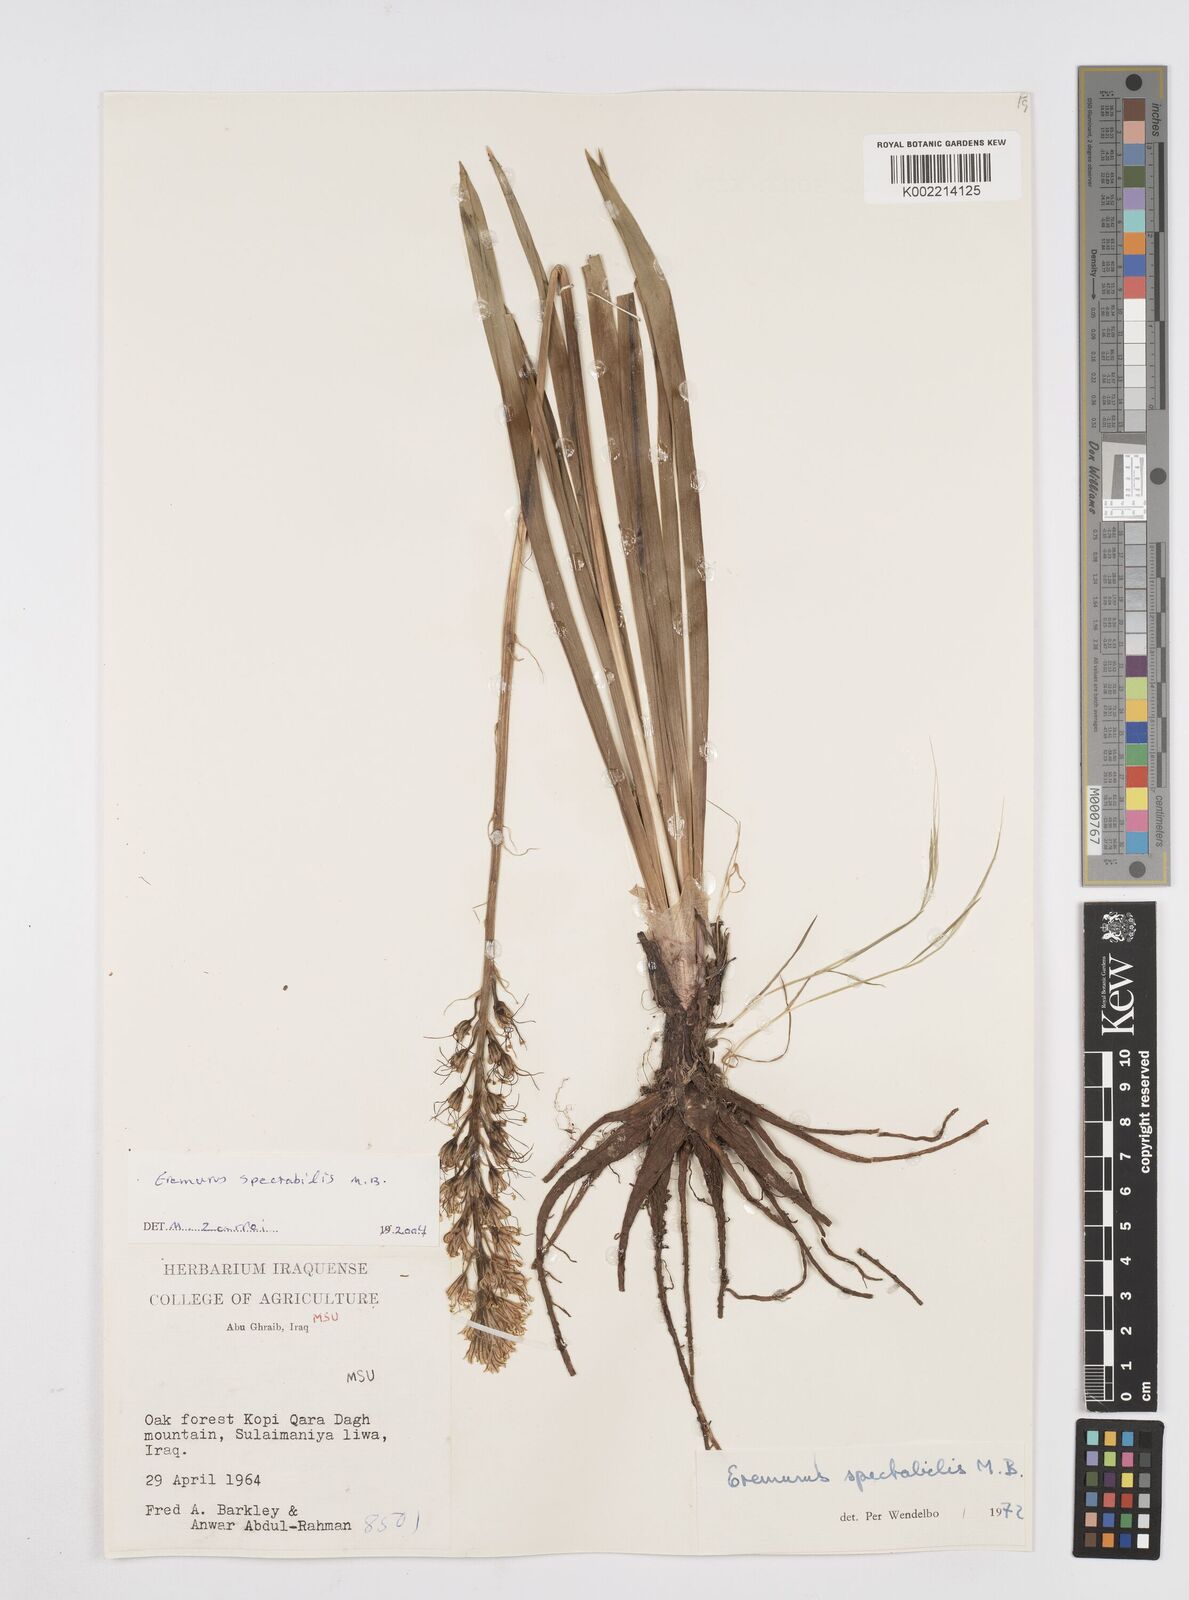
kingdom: Plantae
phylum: Tracheophyta
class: Liliopsida
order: Asparagales
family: Asphodelaceae
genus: Eremurus
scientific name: Eremurus spectabilis
